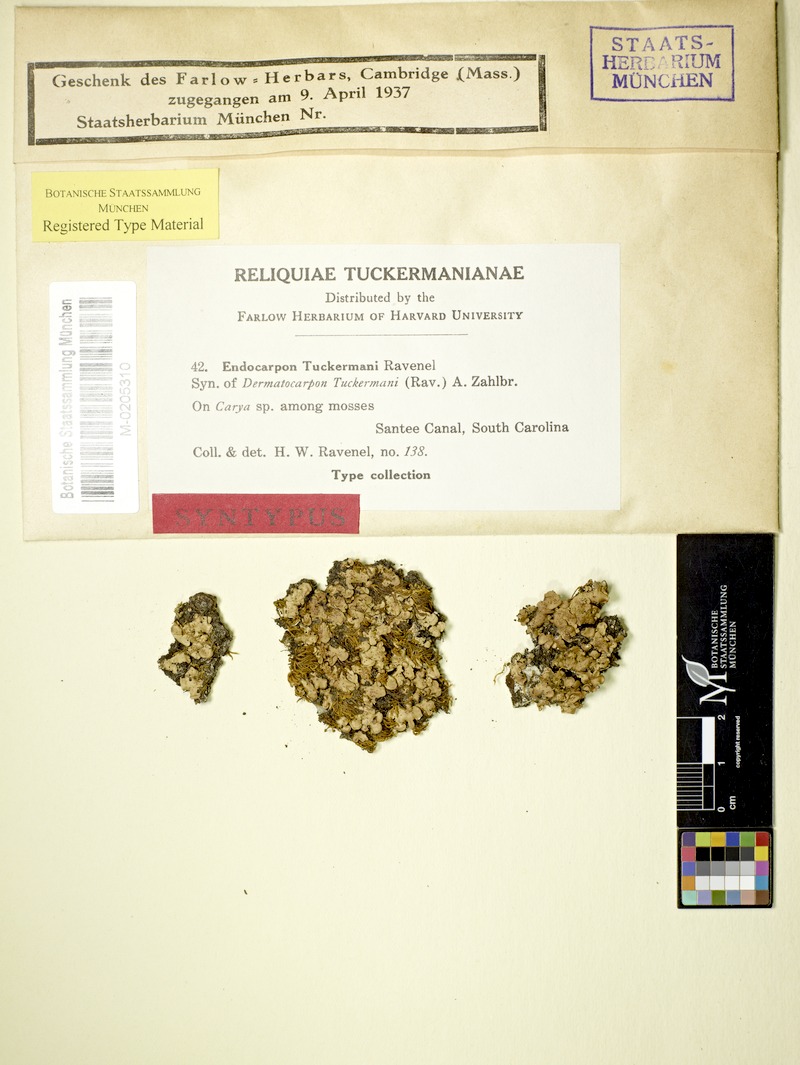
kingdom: Fungi
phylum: Ascomycota
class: Eurotiomycetes
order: Verrucariales
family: Verrucariaceae
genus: Placidium
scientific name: Placidium tuckermanii
